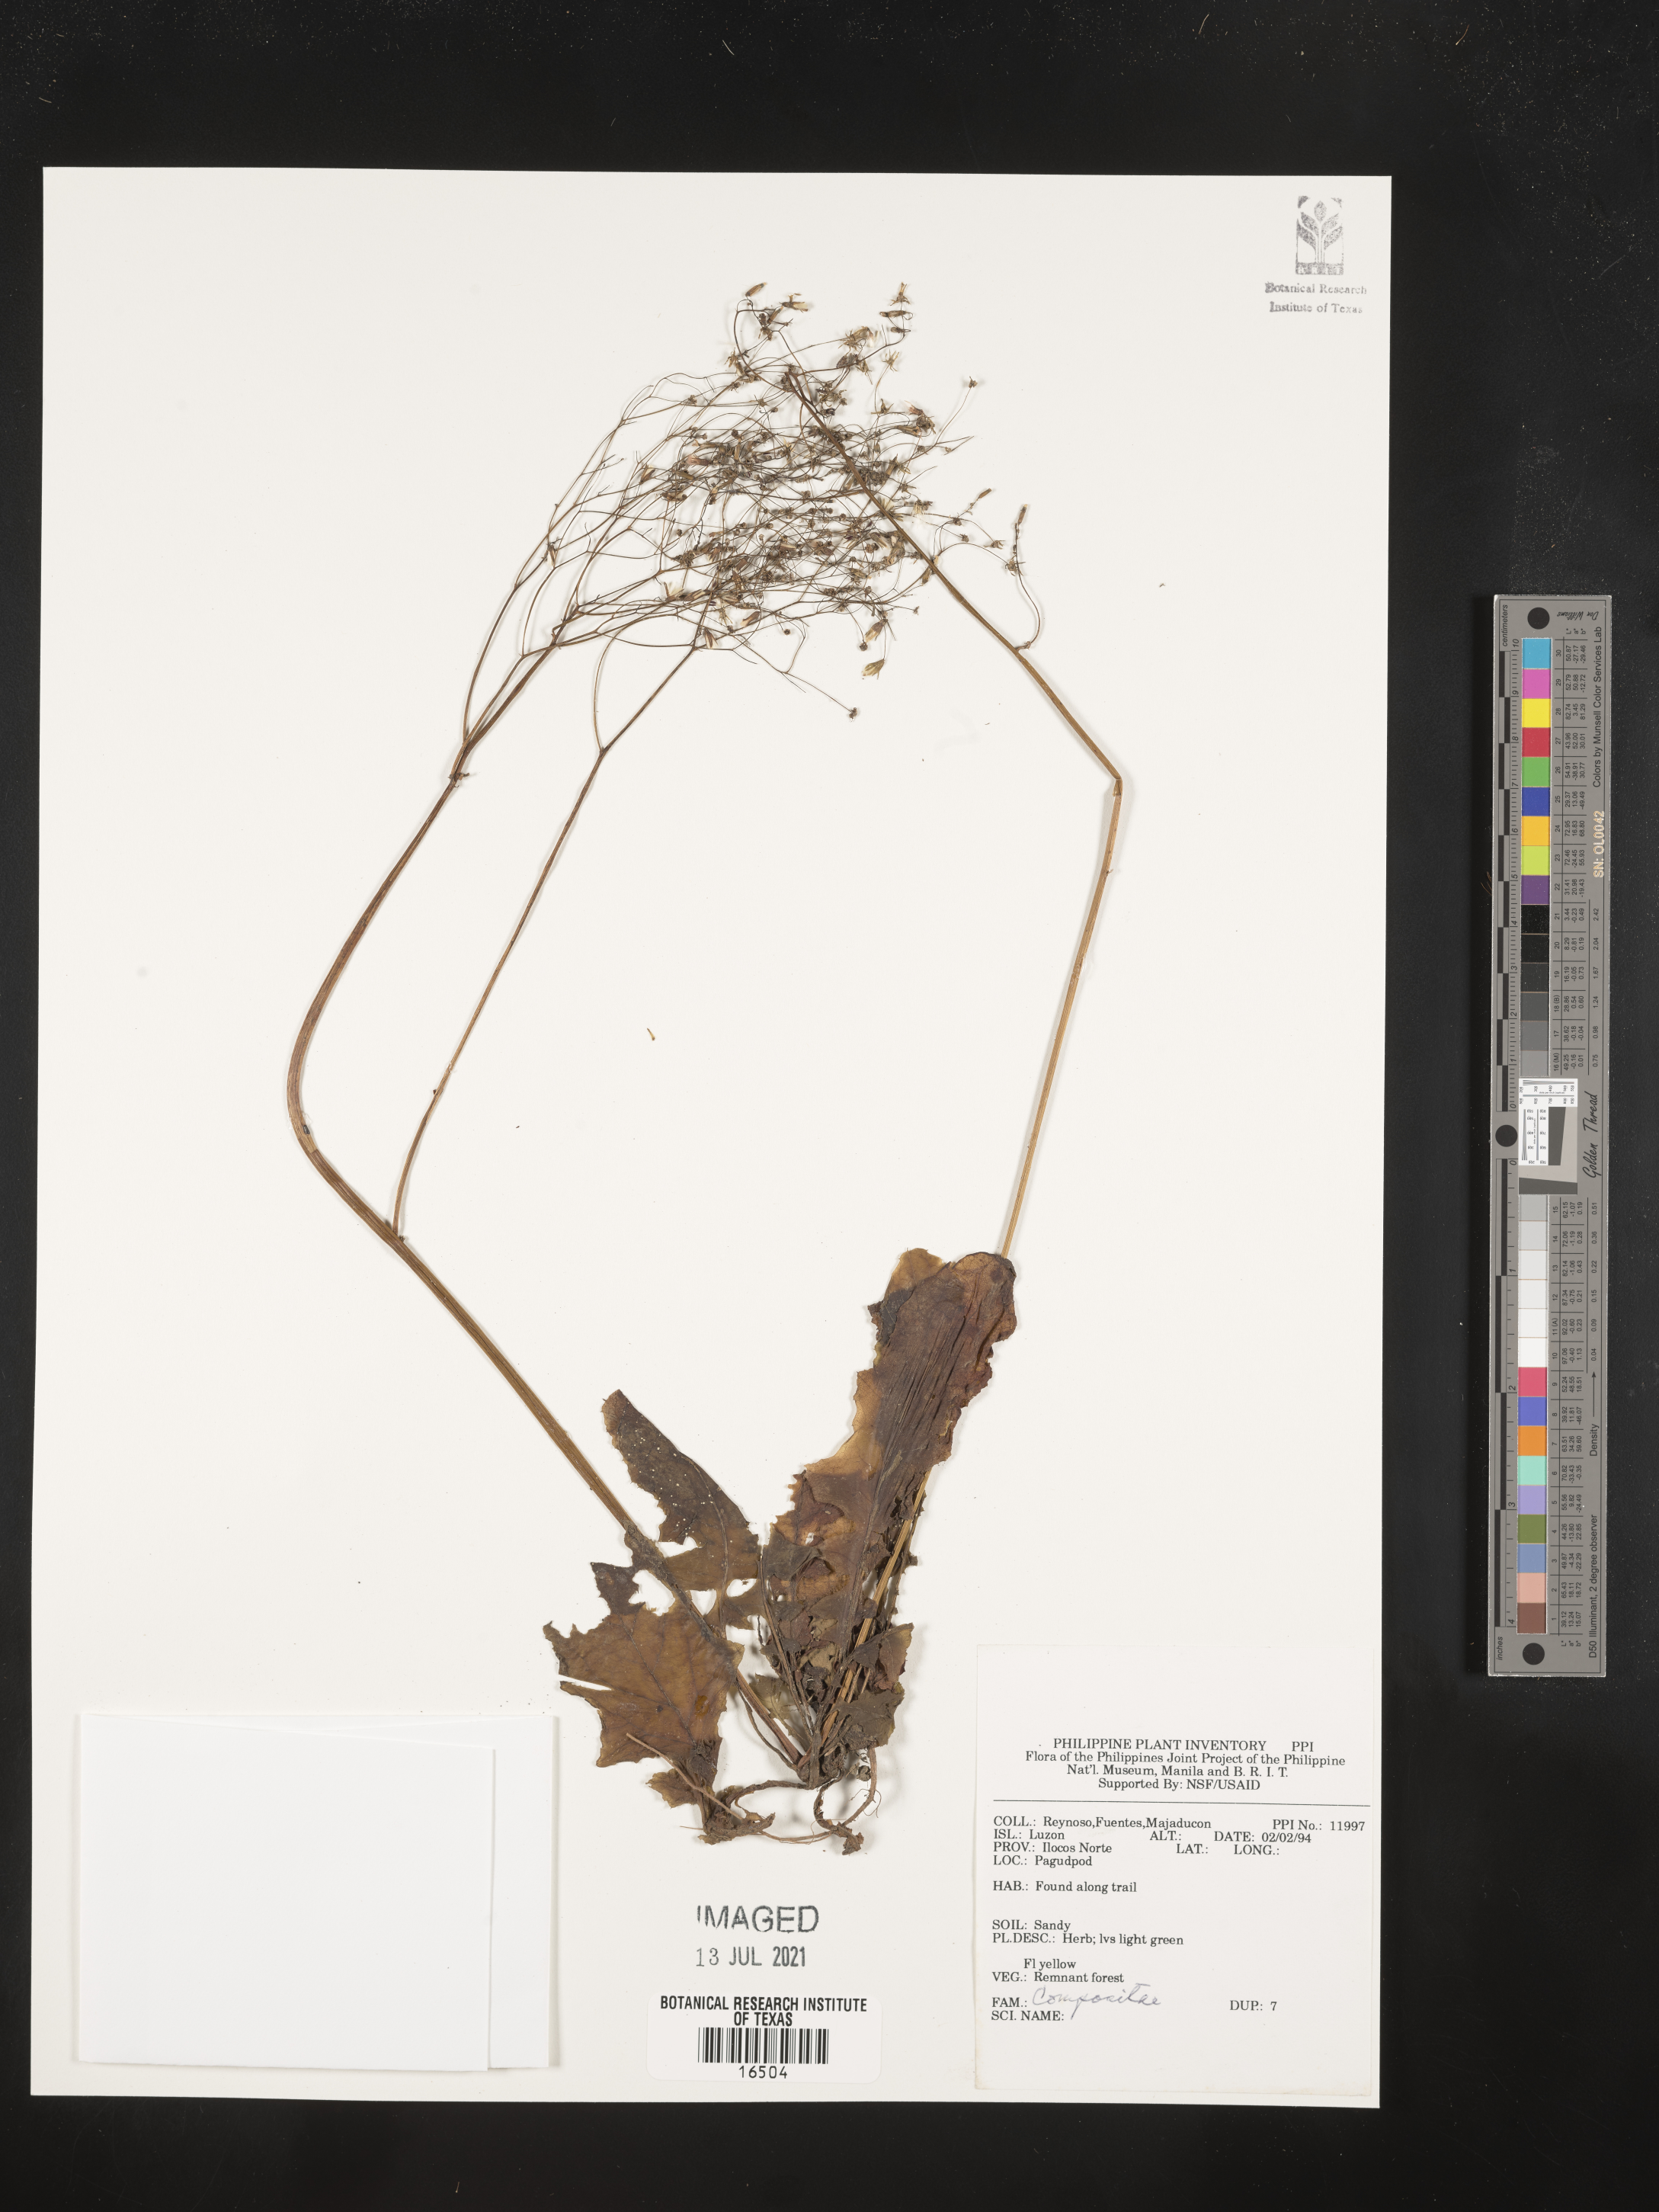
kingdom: Plantae
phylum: Tracheophyta
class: Magnoliopsida
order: Asterales
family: Asteraceae
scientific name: Asteraceae
